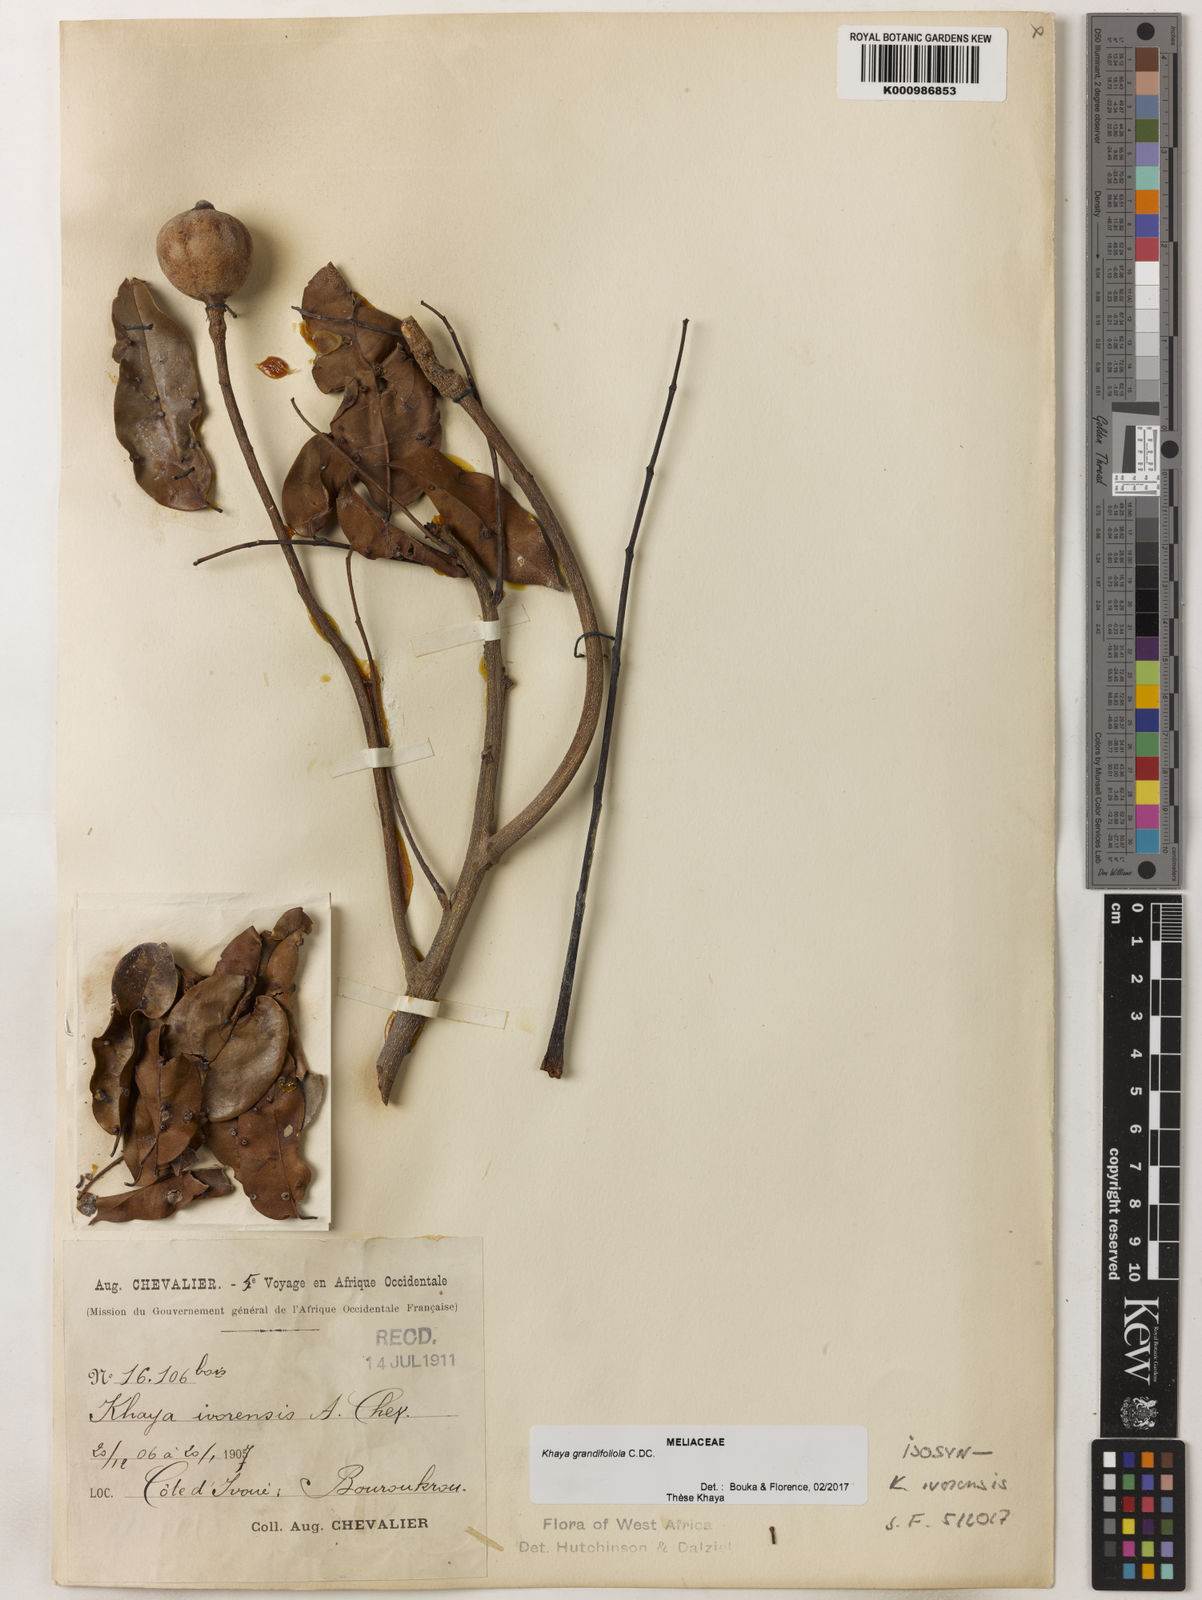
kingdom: Plantae
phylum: Tracheophyta
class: Magnoliopsida
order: Sapindales
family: Meliaceae
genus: Khaya
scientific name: Khaya
